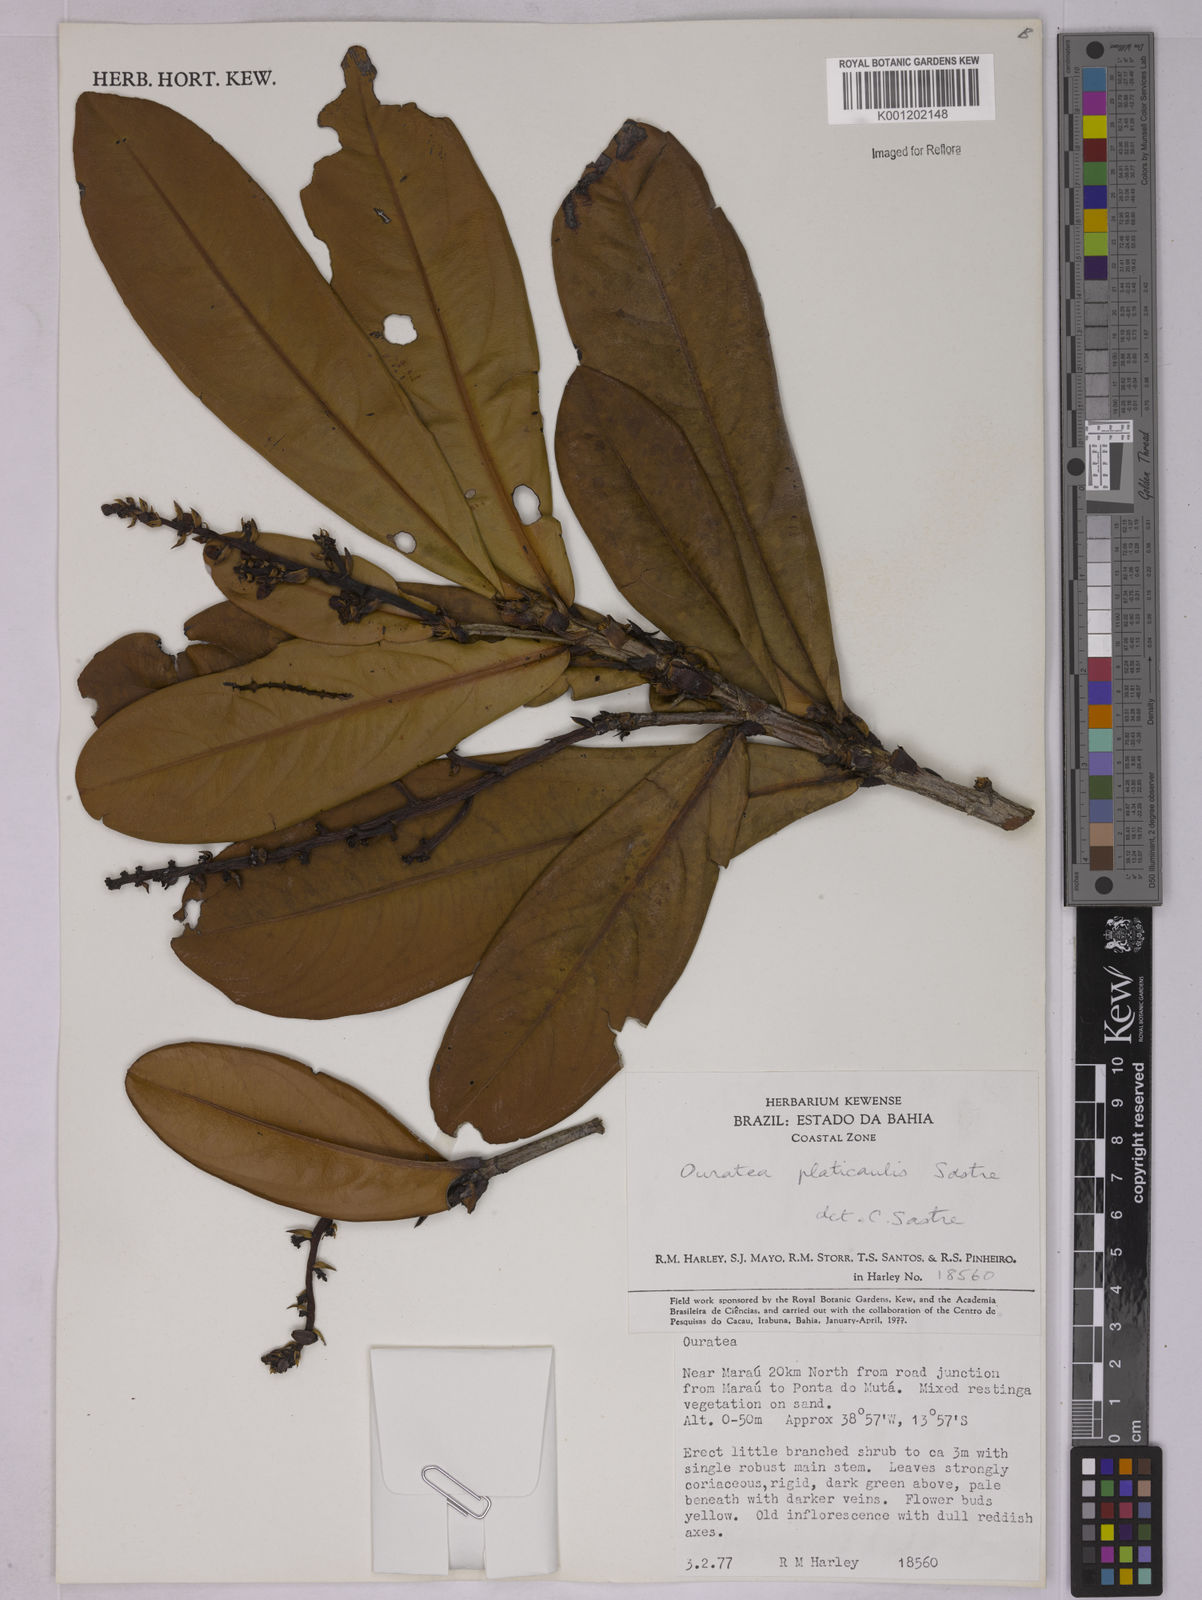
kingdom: Plantae
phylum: Tracheophyta
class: Magnoliopsida
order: Malpighiales
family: Ochnaceae
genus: Ouratea
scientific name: Ouratea platicaulis
